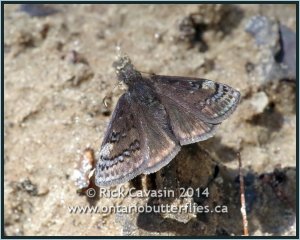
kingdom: Animalia
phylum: Arthropoda
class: Insecta
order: Lepidoptera
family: Hesperiidae
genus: Erynnis
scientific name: Erynnis brizo
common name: Sleepy Duskywing
